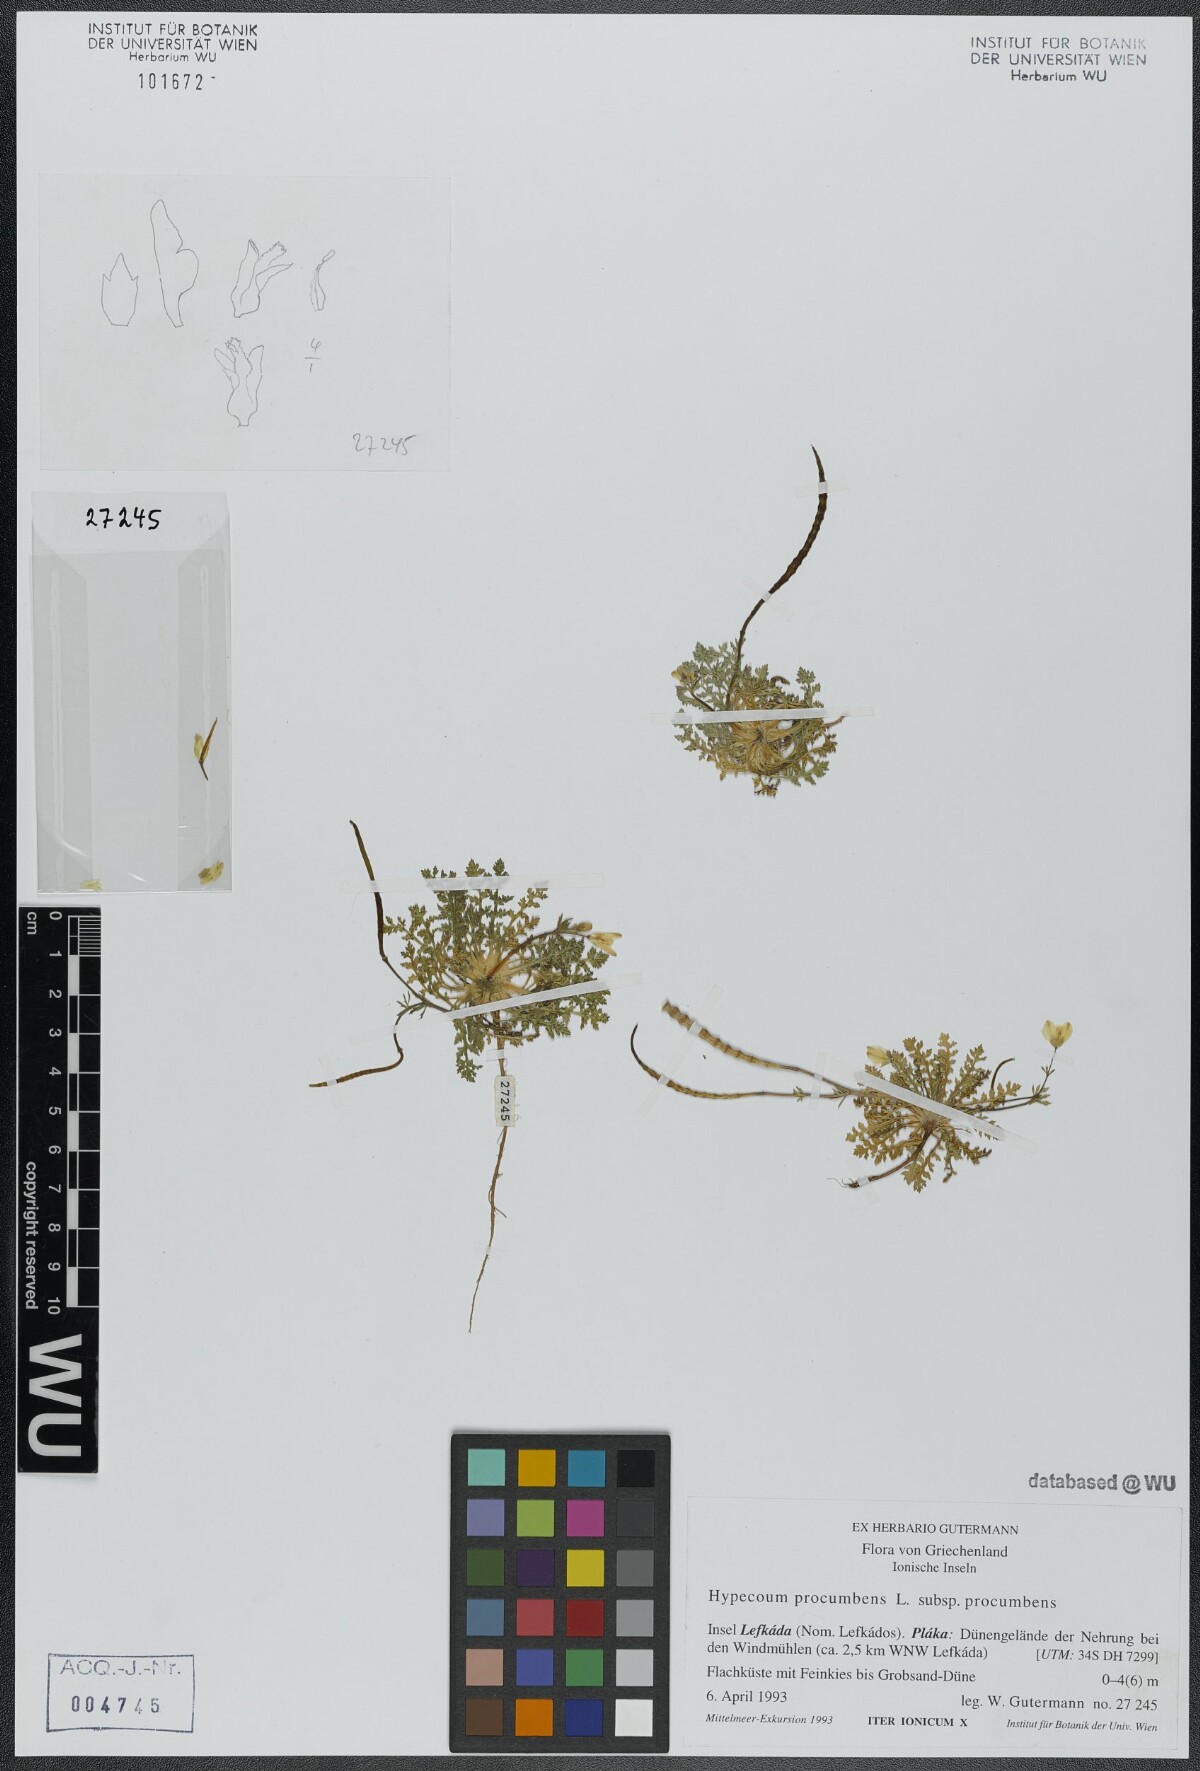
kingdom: Plantae
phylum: Tracheophyta
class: Magnoliopsida
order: Ranunculales
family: Papaveraceae
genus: Hypecoum
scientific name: Hypecoum procumbens
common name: Procumbent hypecoum
